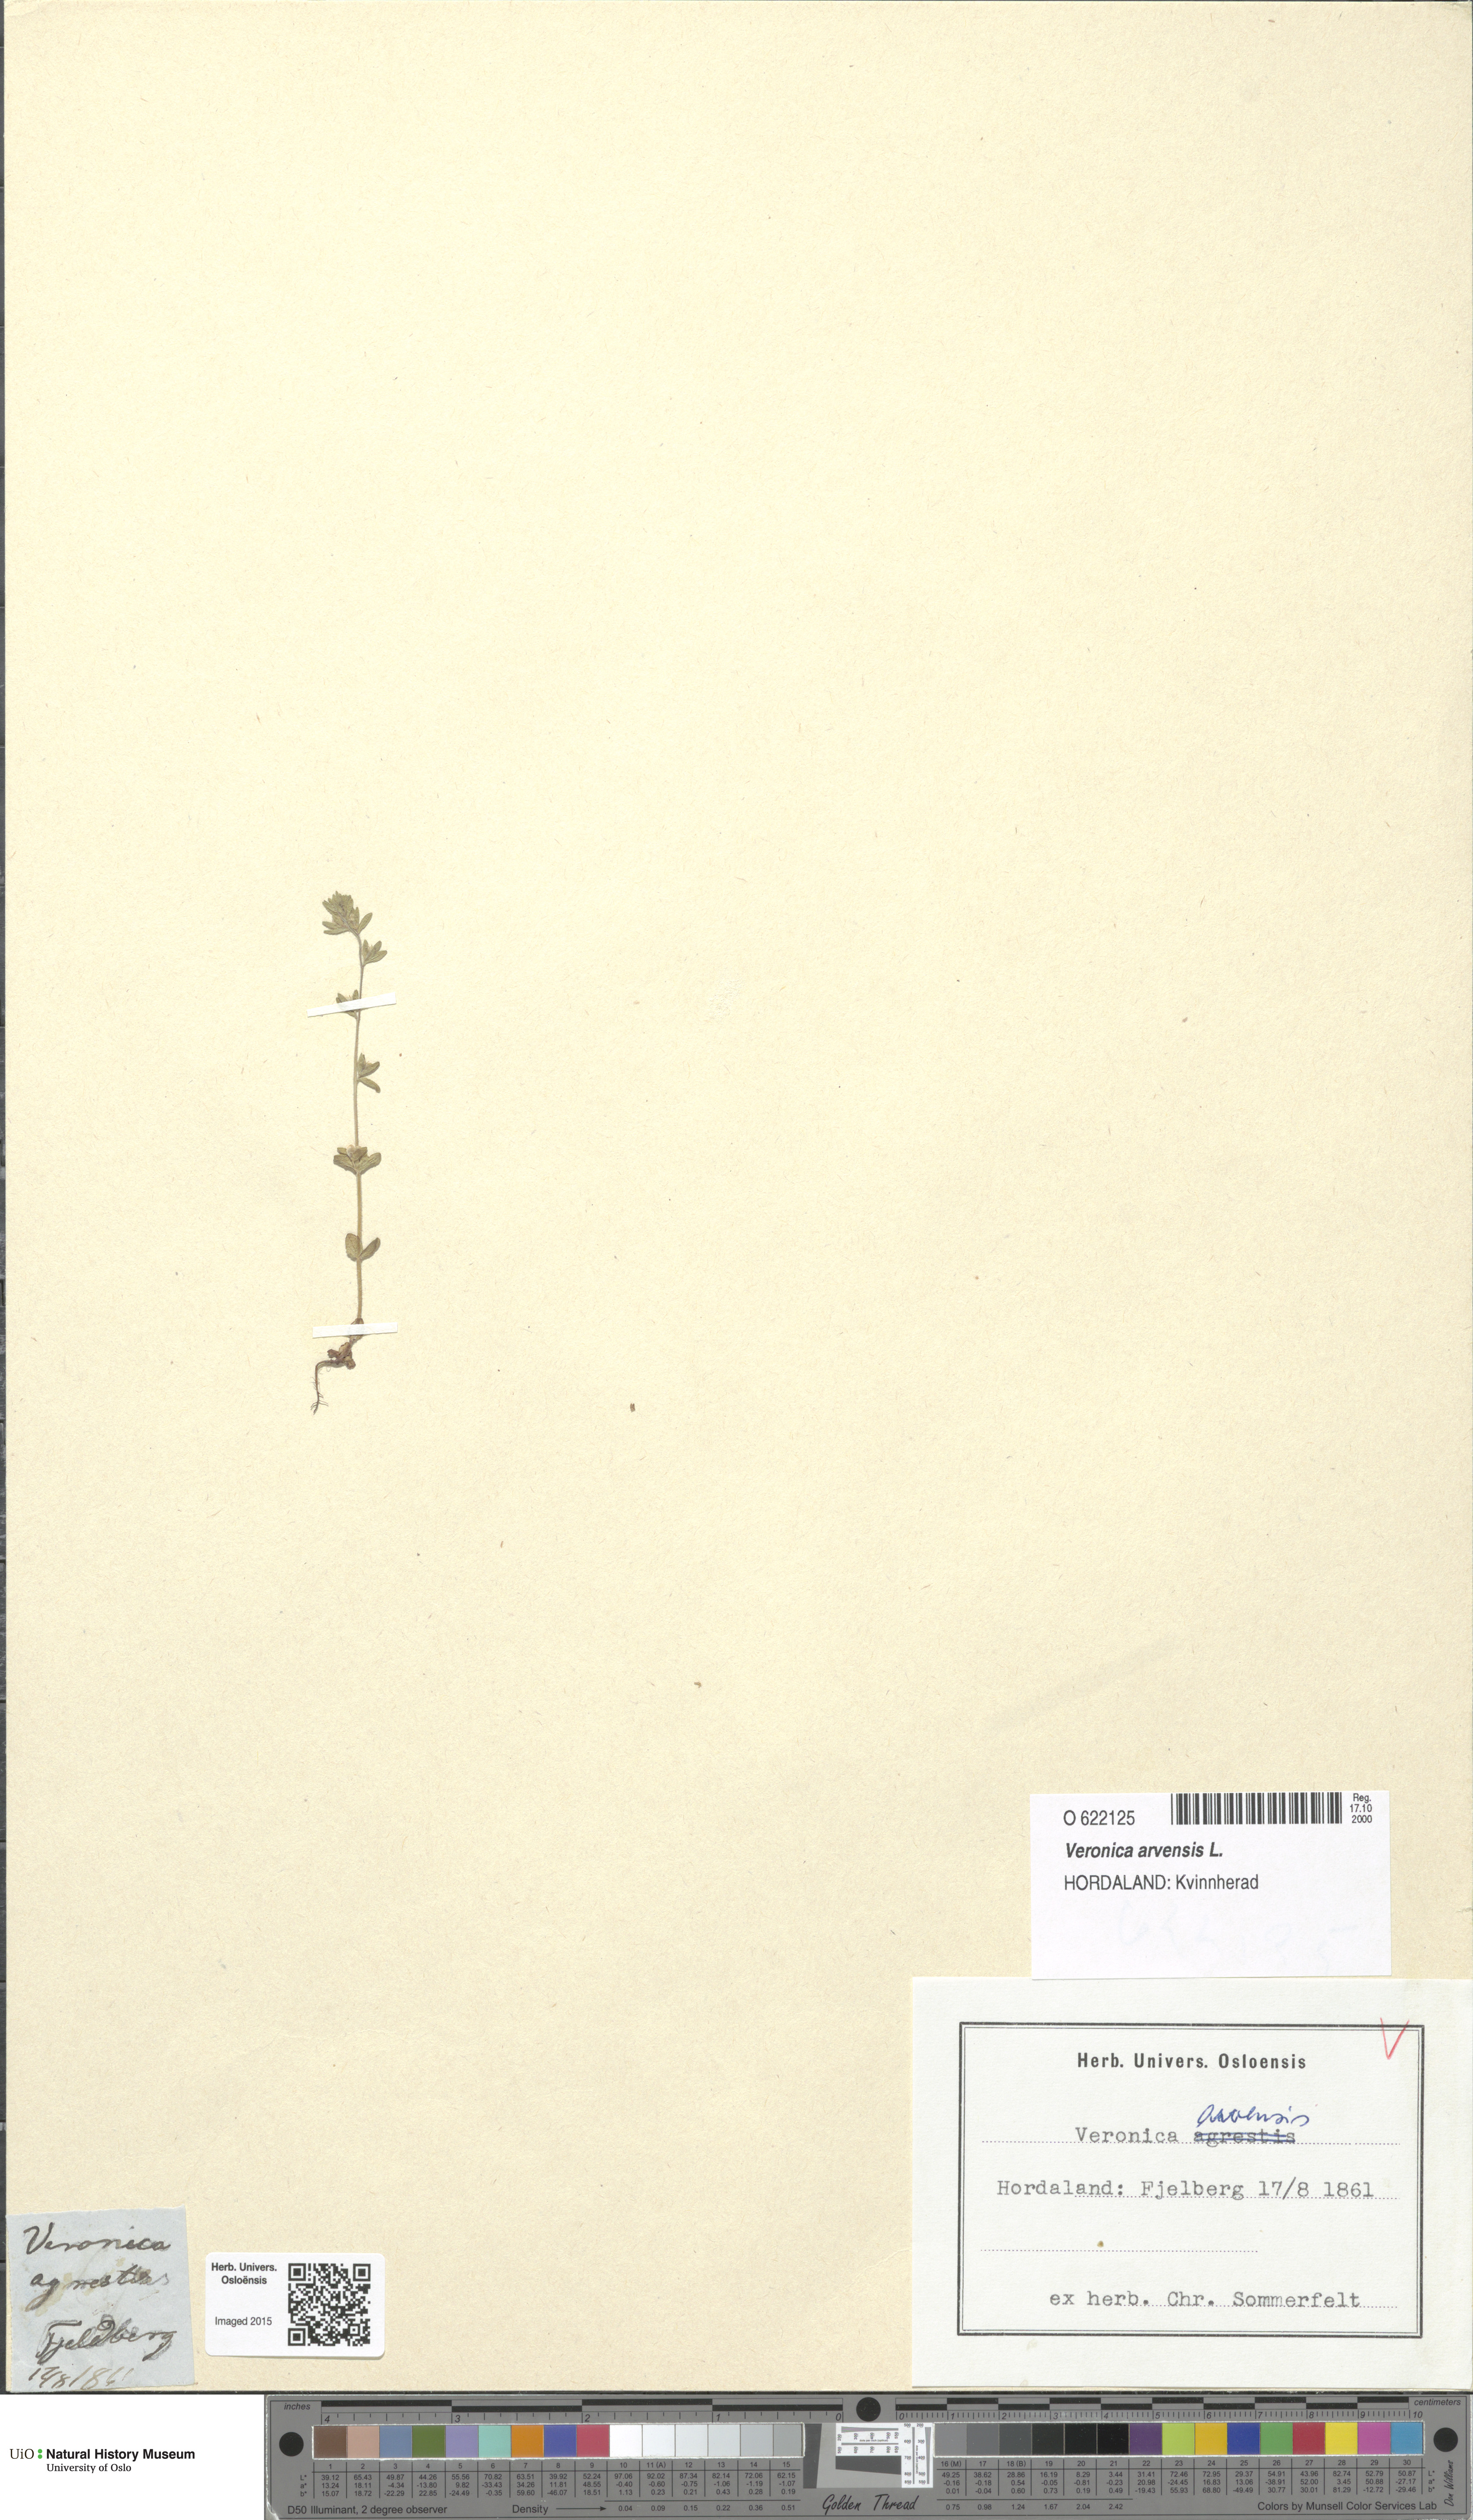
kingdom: Plantae
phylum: Tracheophyta
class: Magnoliopsida
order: Lamiales
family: Plantaginaceae
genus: Veronica
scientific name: Veronica arvensis
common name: Corn speedwell
